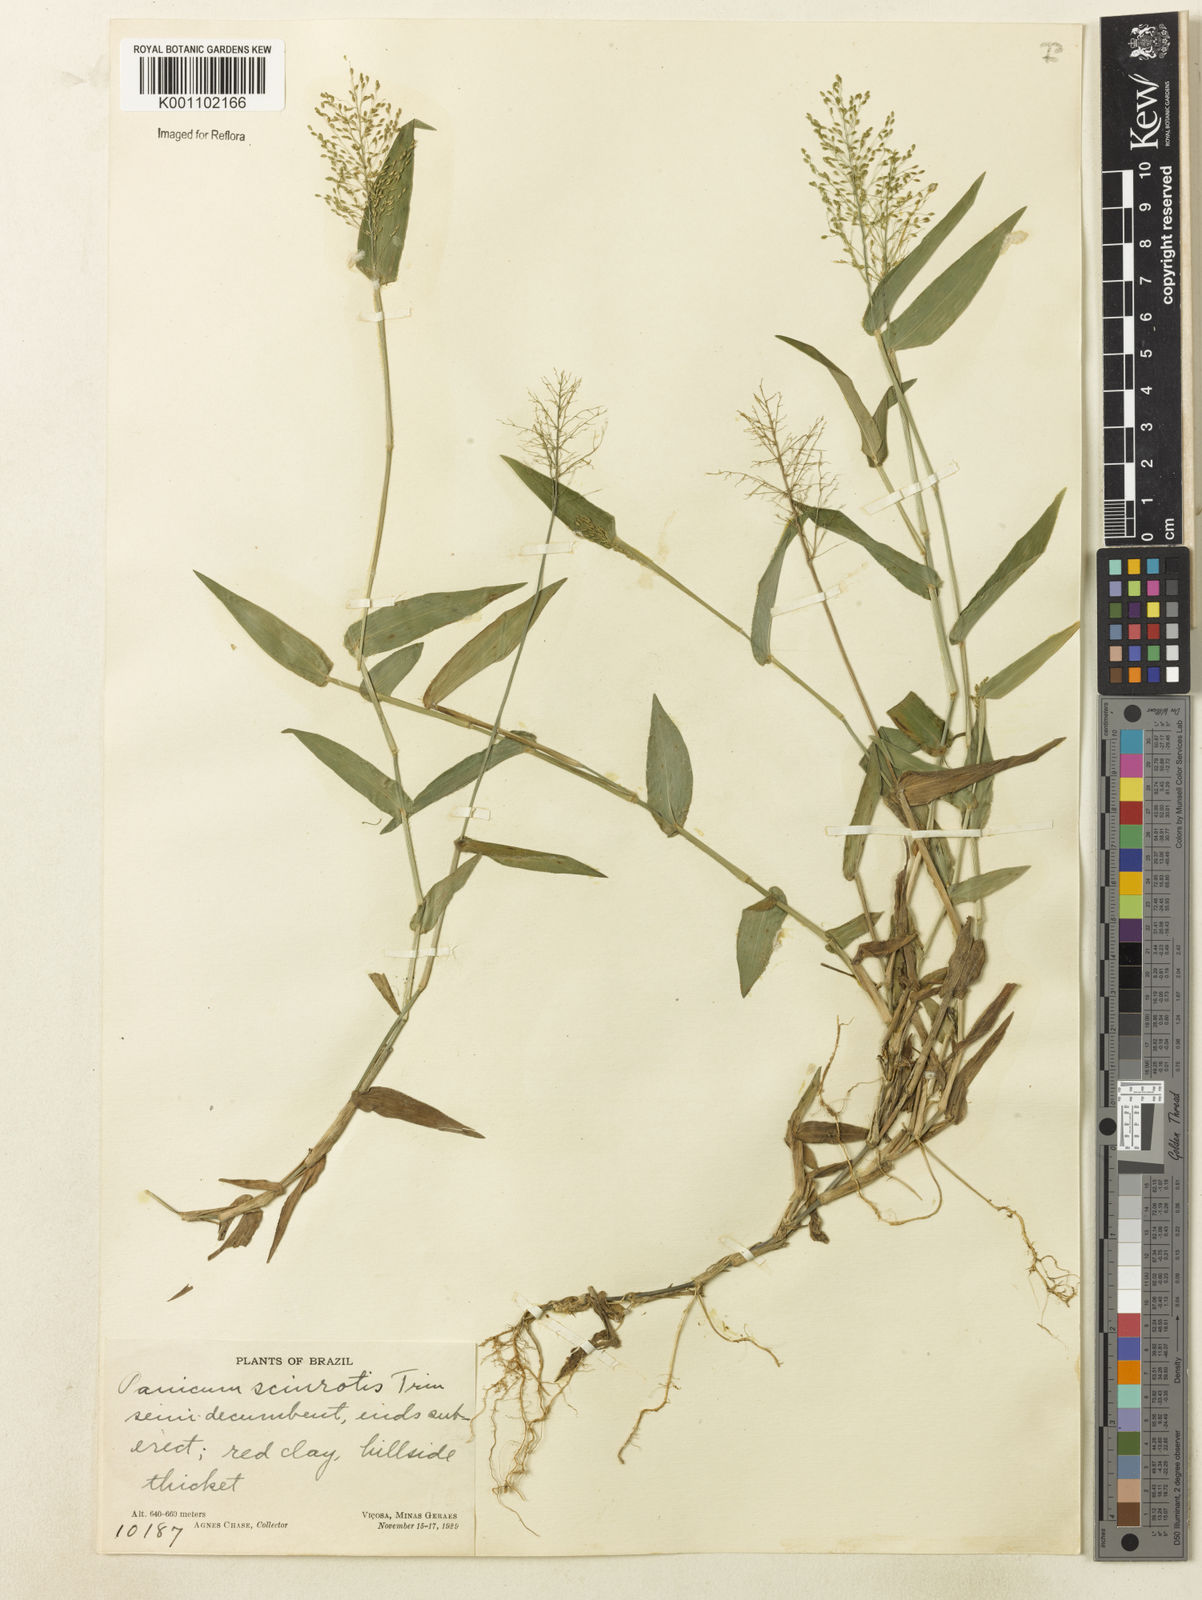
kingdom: Plantae
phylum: Tracheophyta
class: Liliopsida
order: Poales
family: Poaceae
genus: Dichanthelium
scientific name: Dichanthelium sciurotoides
